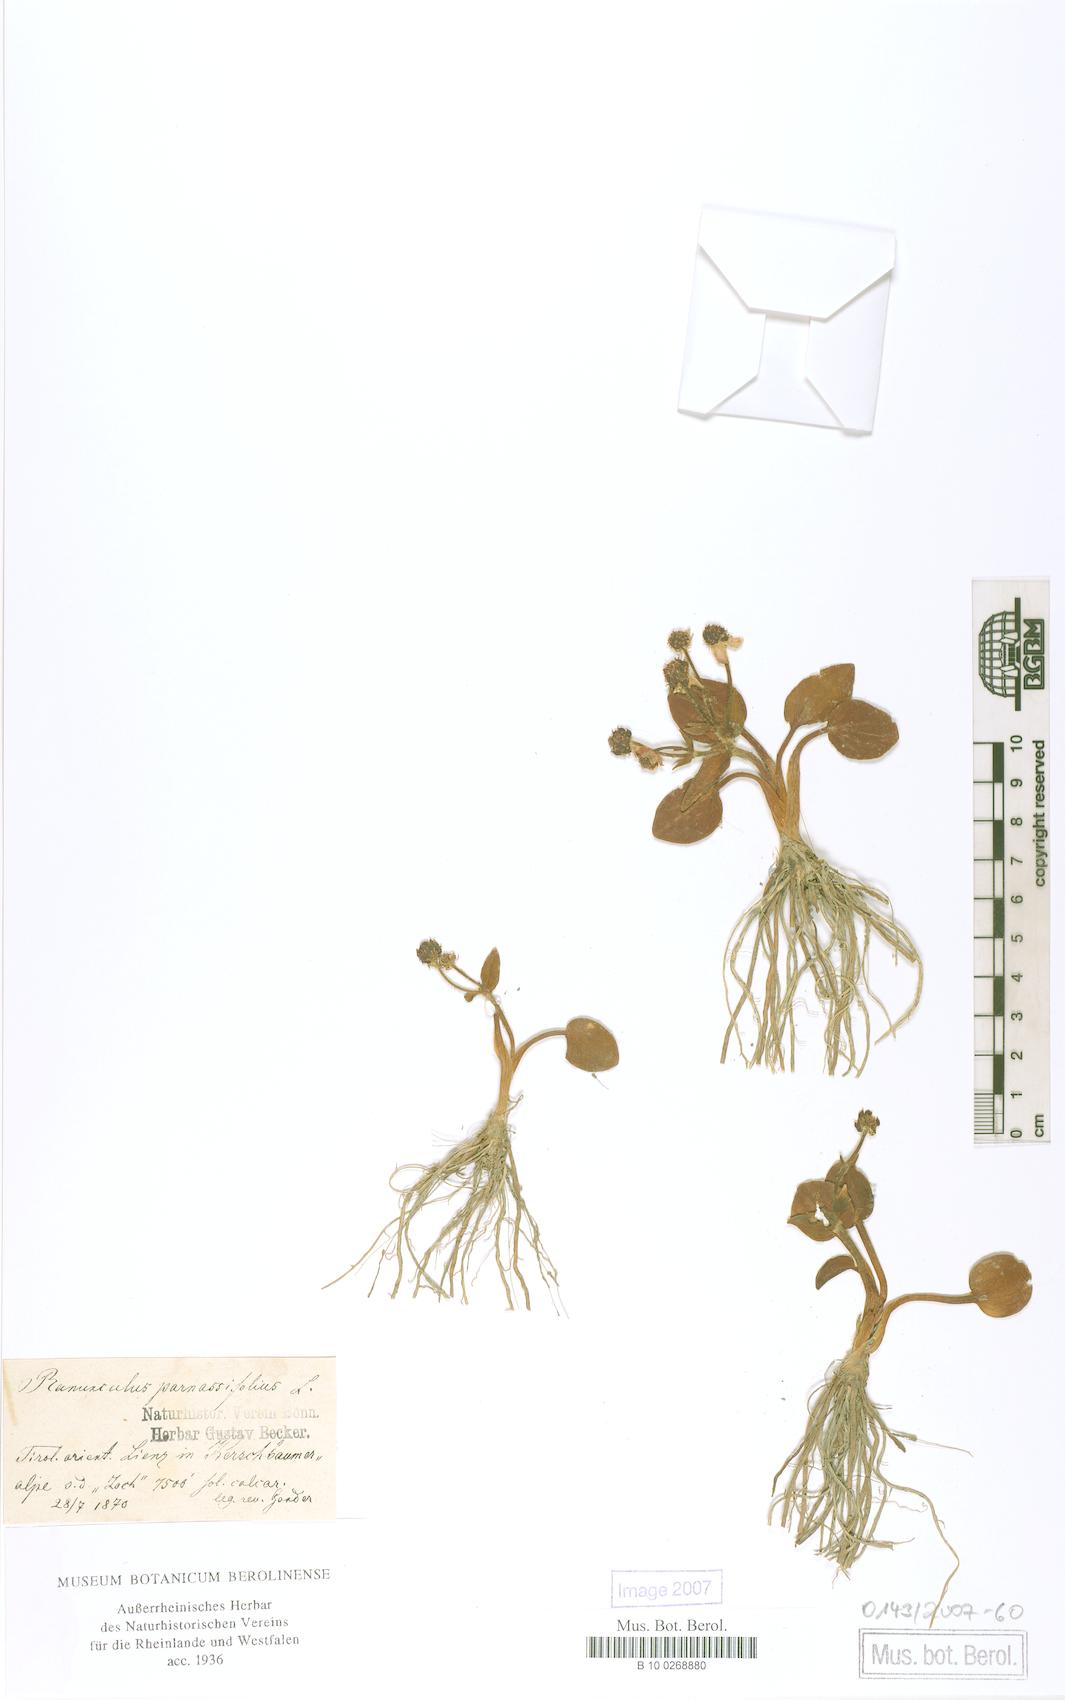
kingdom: Plantae
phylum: Tracheophyta
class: Magnoliopsida
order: Ranunculales
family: Ranunculaceae
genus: Ranunculus
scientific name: Ranunculus parnassiifolius
